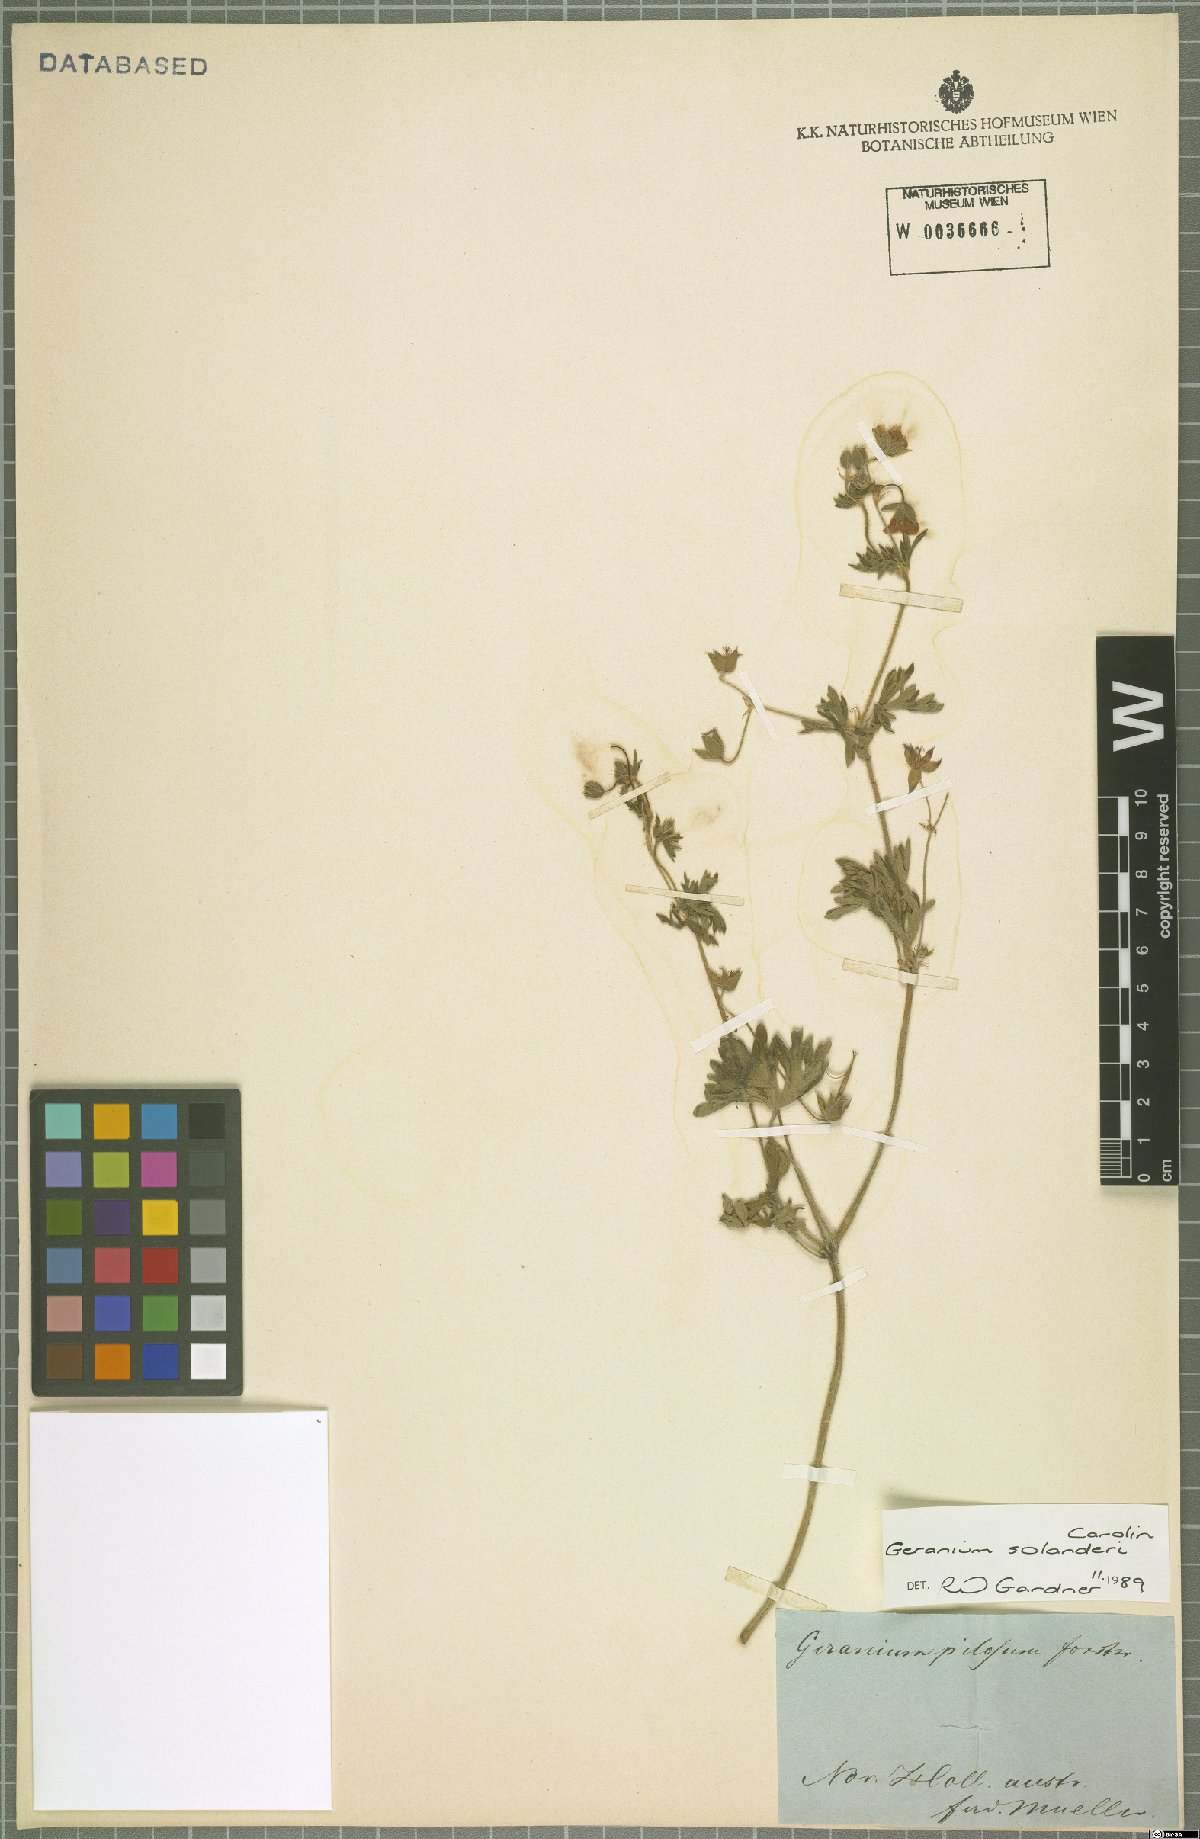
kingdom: Plantae
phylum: Tracheophyta
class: Magnoliopsida
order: Geraniales
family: Geraniaceae
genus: Geranium
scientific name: Geranium solanderi
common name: Solander's geranium
